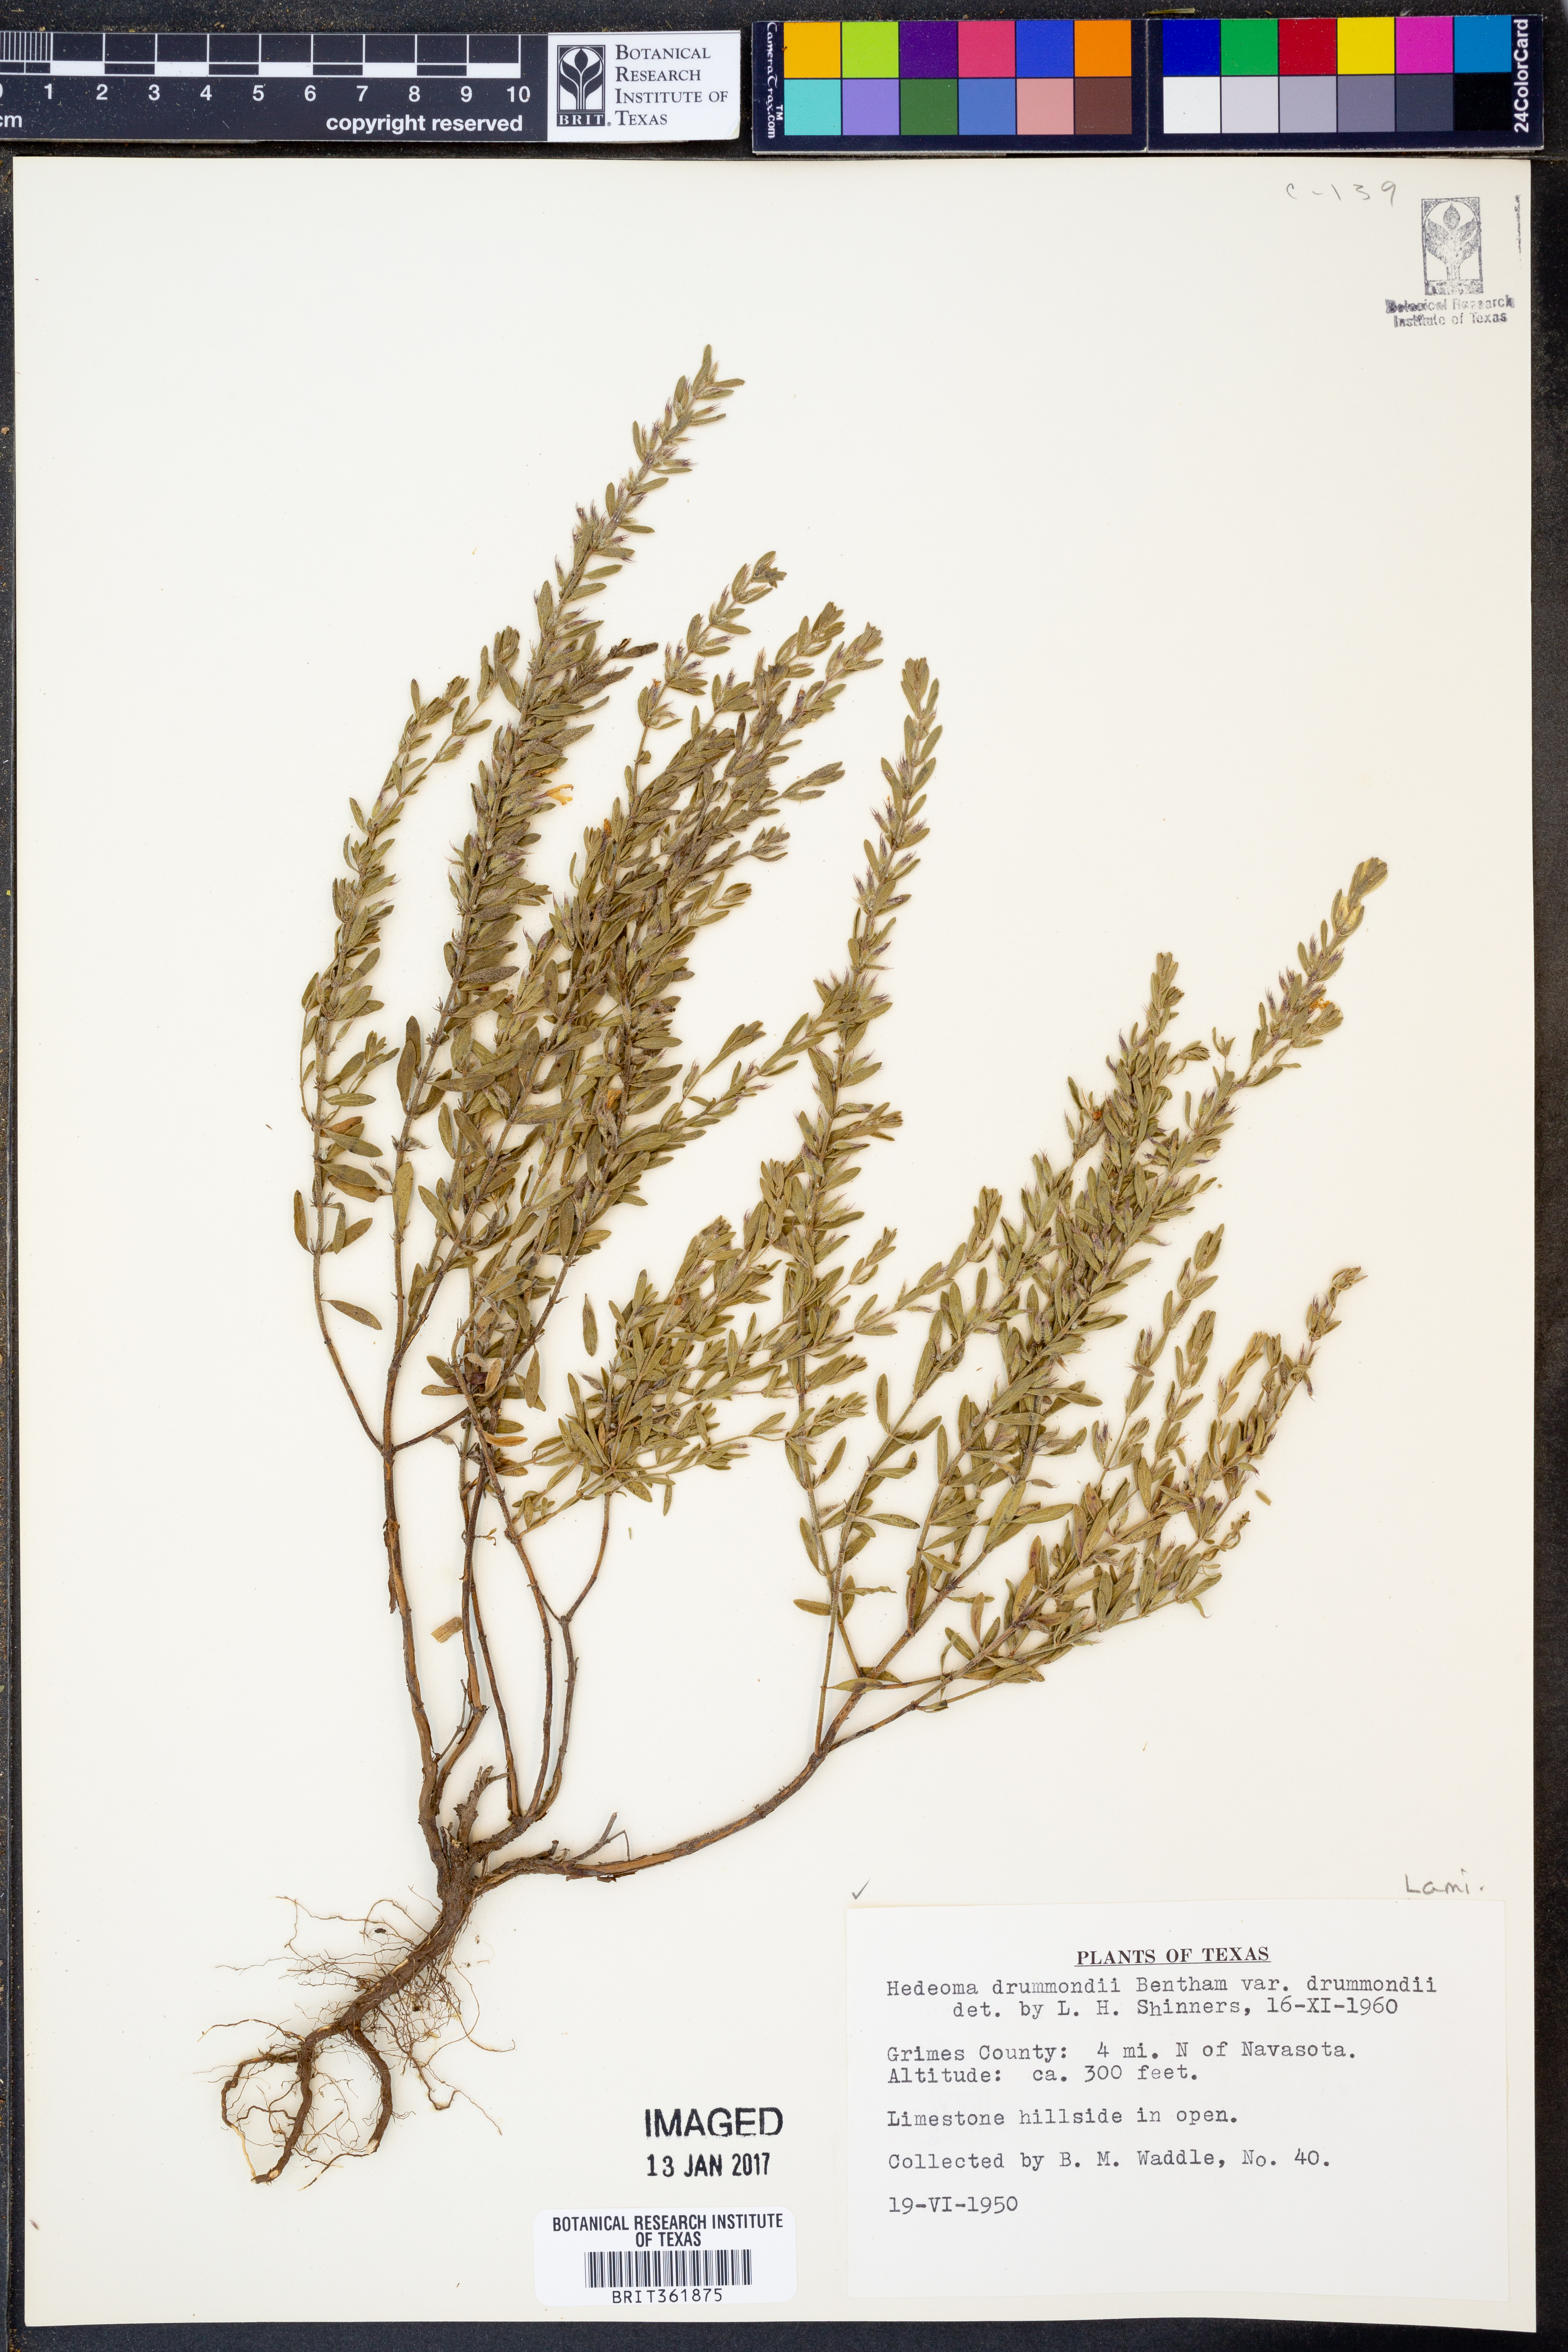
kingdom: Plantae
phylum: Tracheophyta
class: Magnoliopsida
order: Lamiales
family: Lamiaceae
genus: Hedeoma
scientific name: Hedeoma drummondii
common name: New mexico pennyroyal
